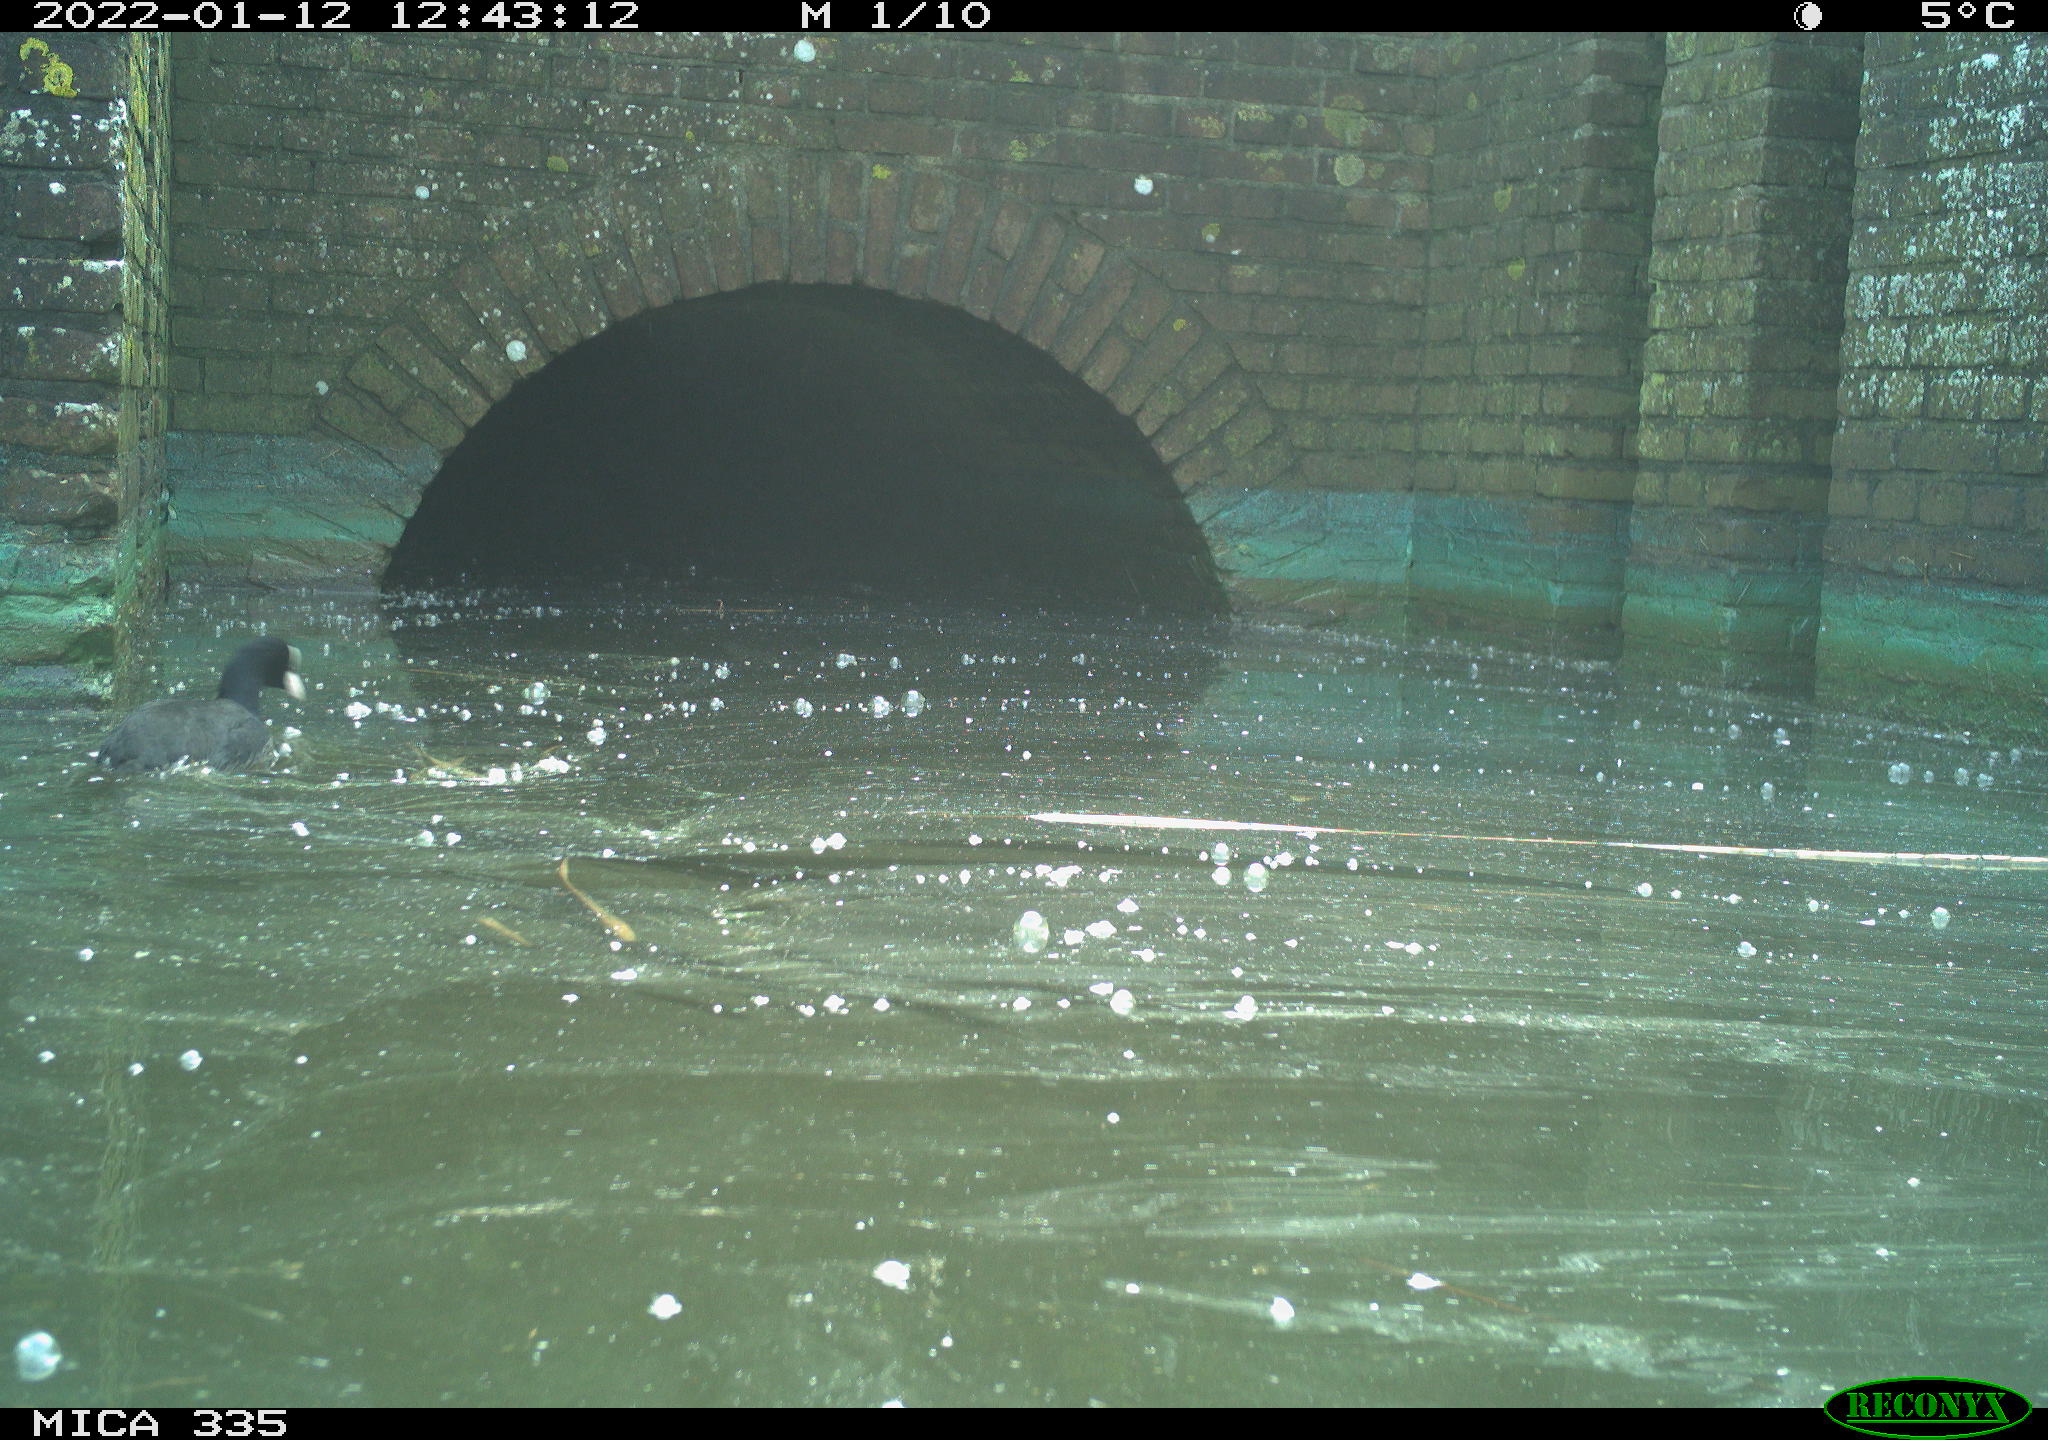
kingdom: Animalia
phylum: Chordata
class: Aves
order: Gruiformes
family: Rallidae
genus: Fulica
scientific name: Fulica atra
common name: Eurasian coot
